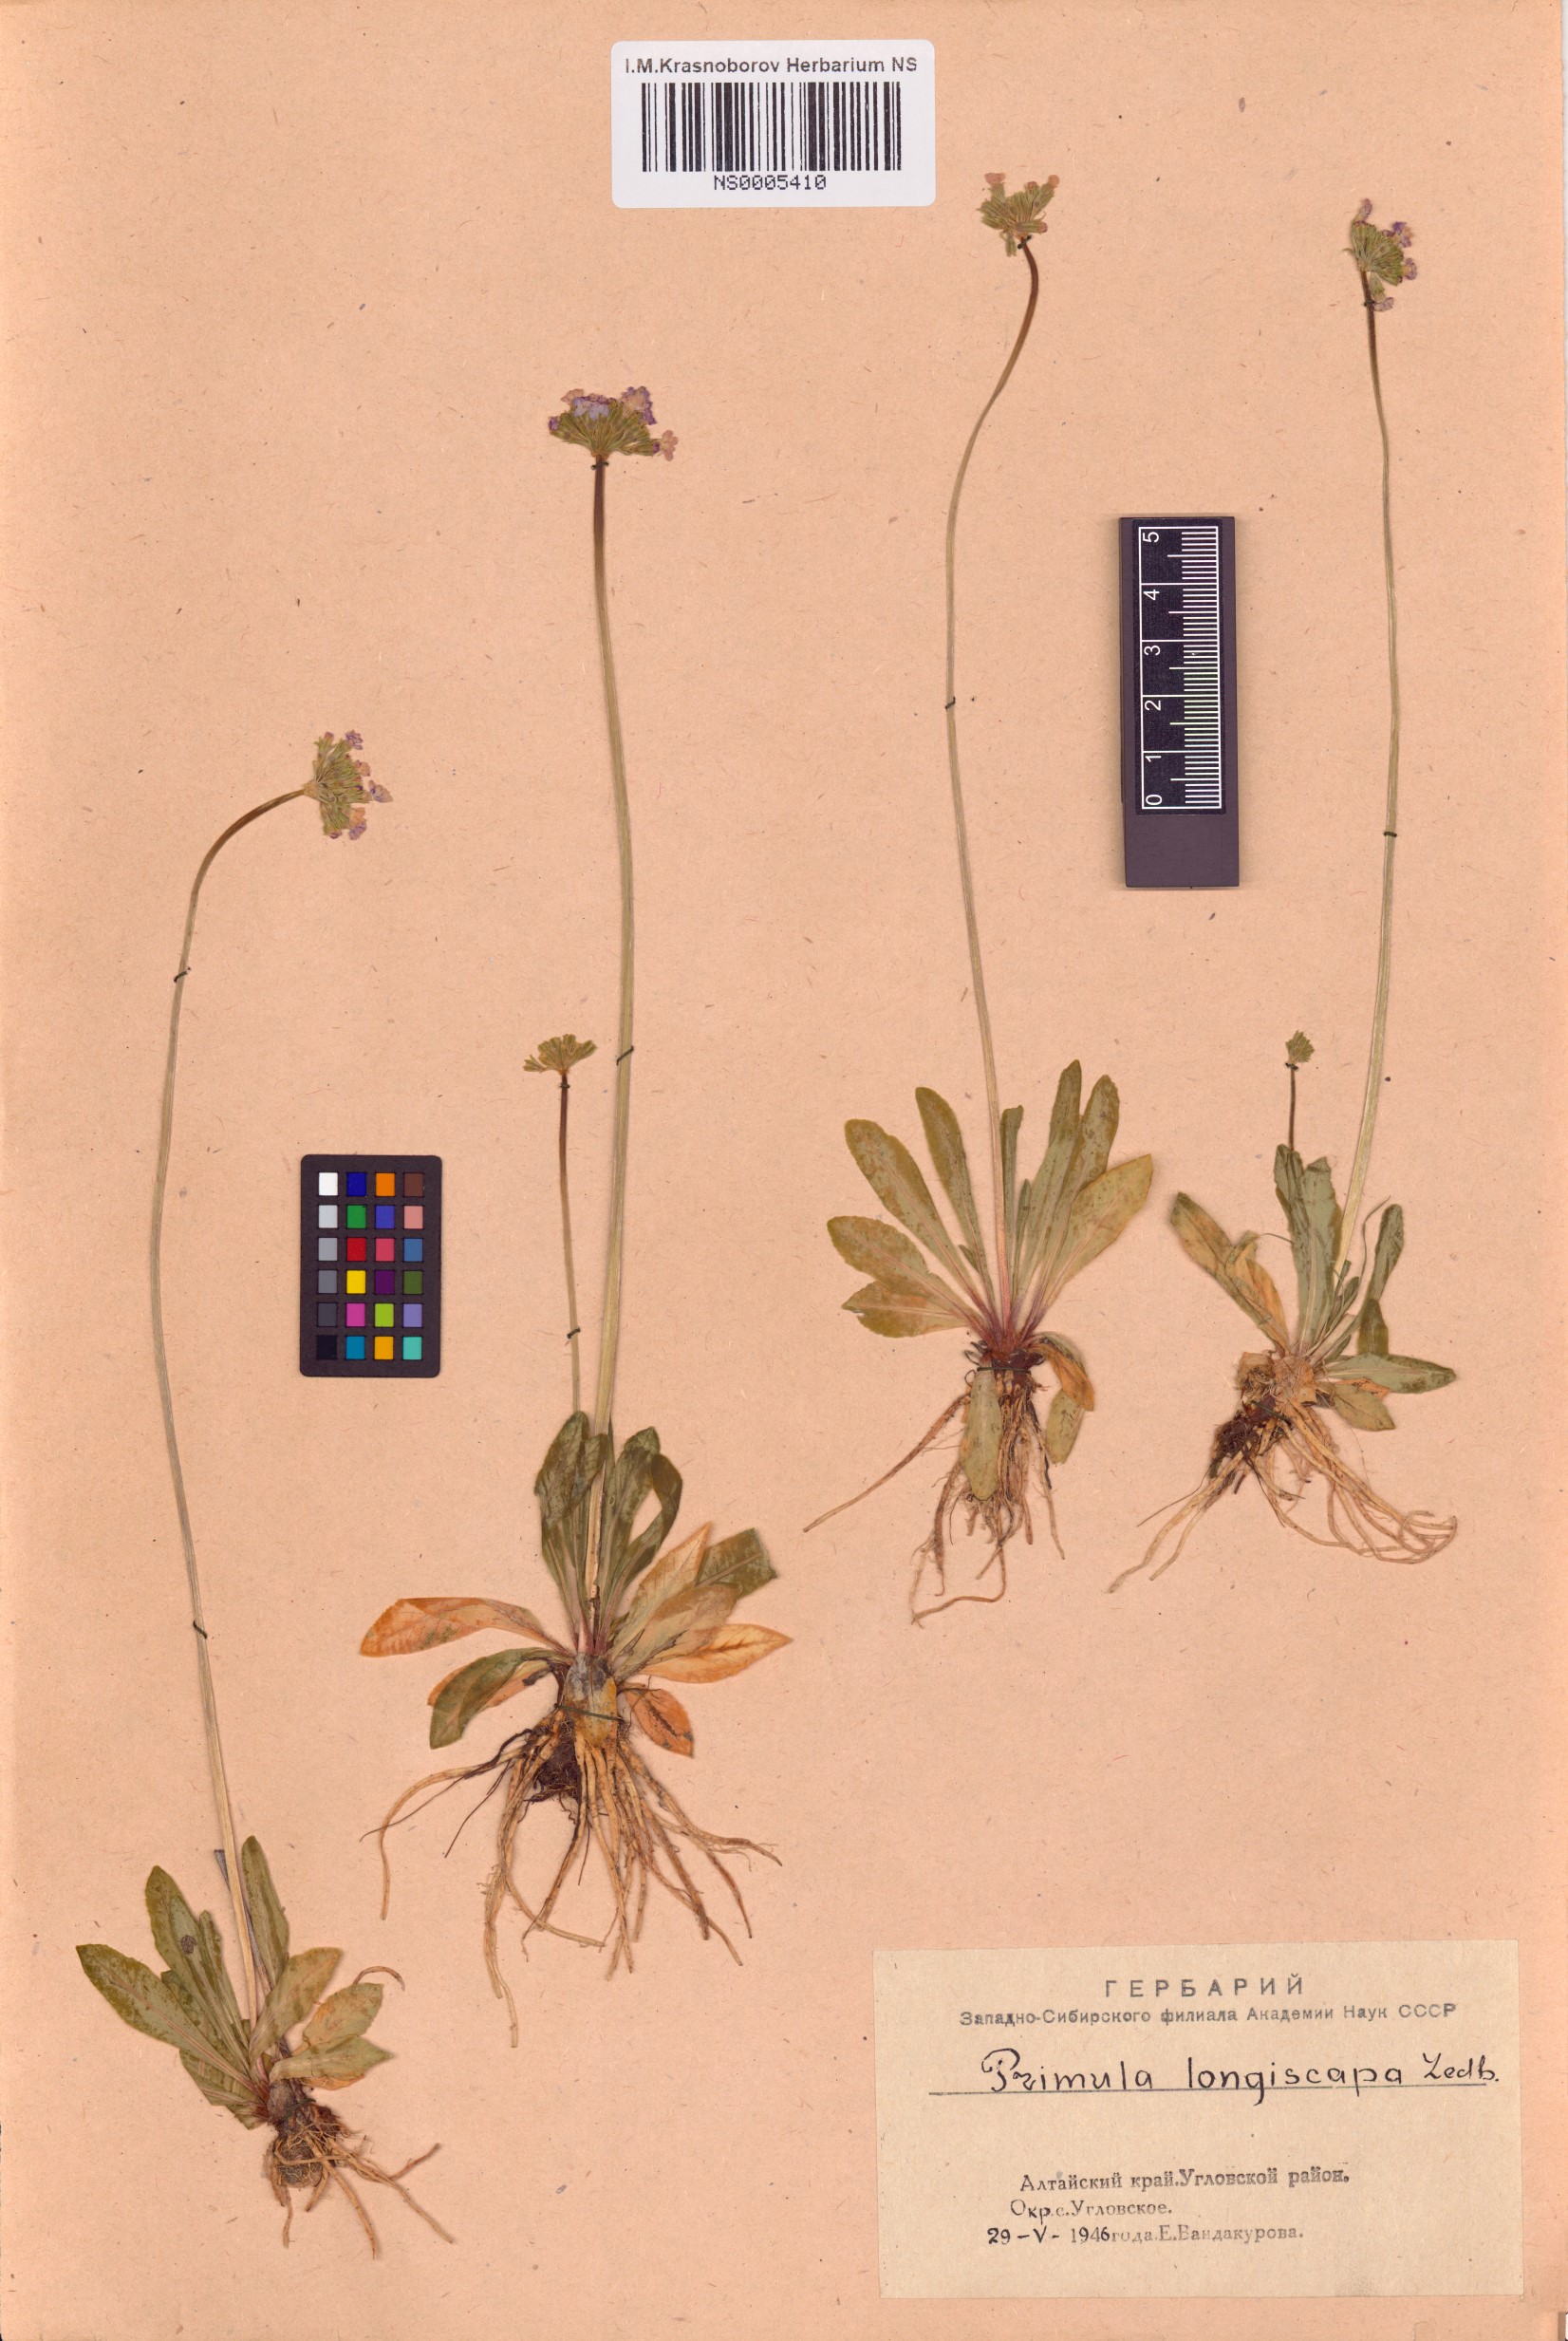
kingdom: Plantae
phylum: Tracheophyta
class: Magnoliopsida
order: Ericales
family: Primulaceae
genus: Primula
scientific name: Primula longiscapa
